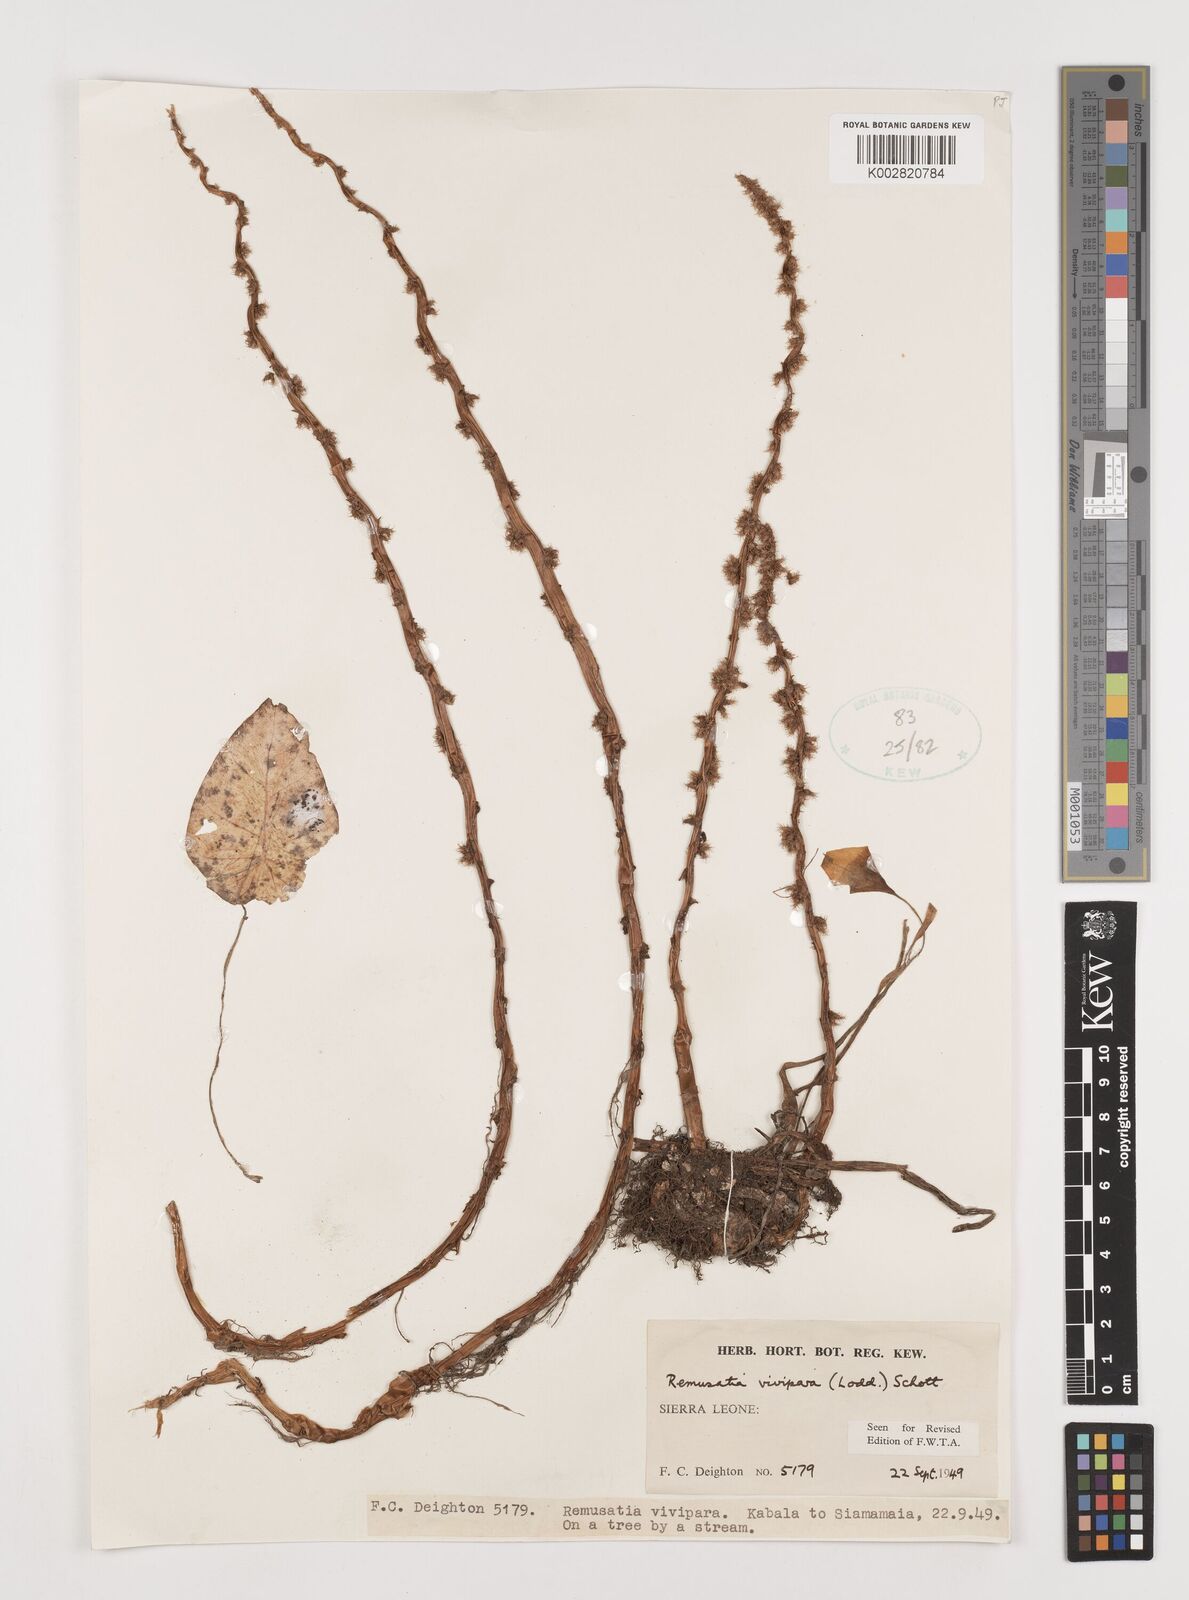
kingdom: Plantae
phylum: Tracheophyta
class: Liliopsida
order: Alismatales
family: Araceae
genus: Remusatia
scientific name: Remusatia vivipara
